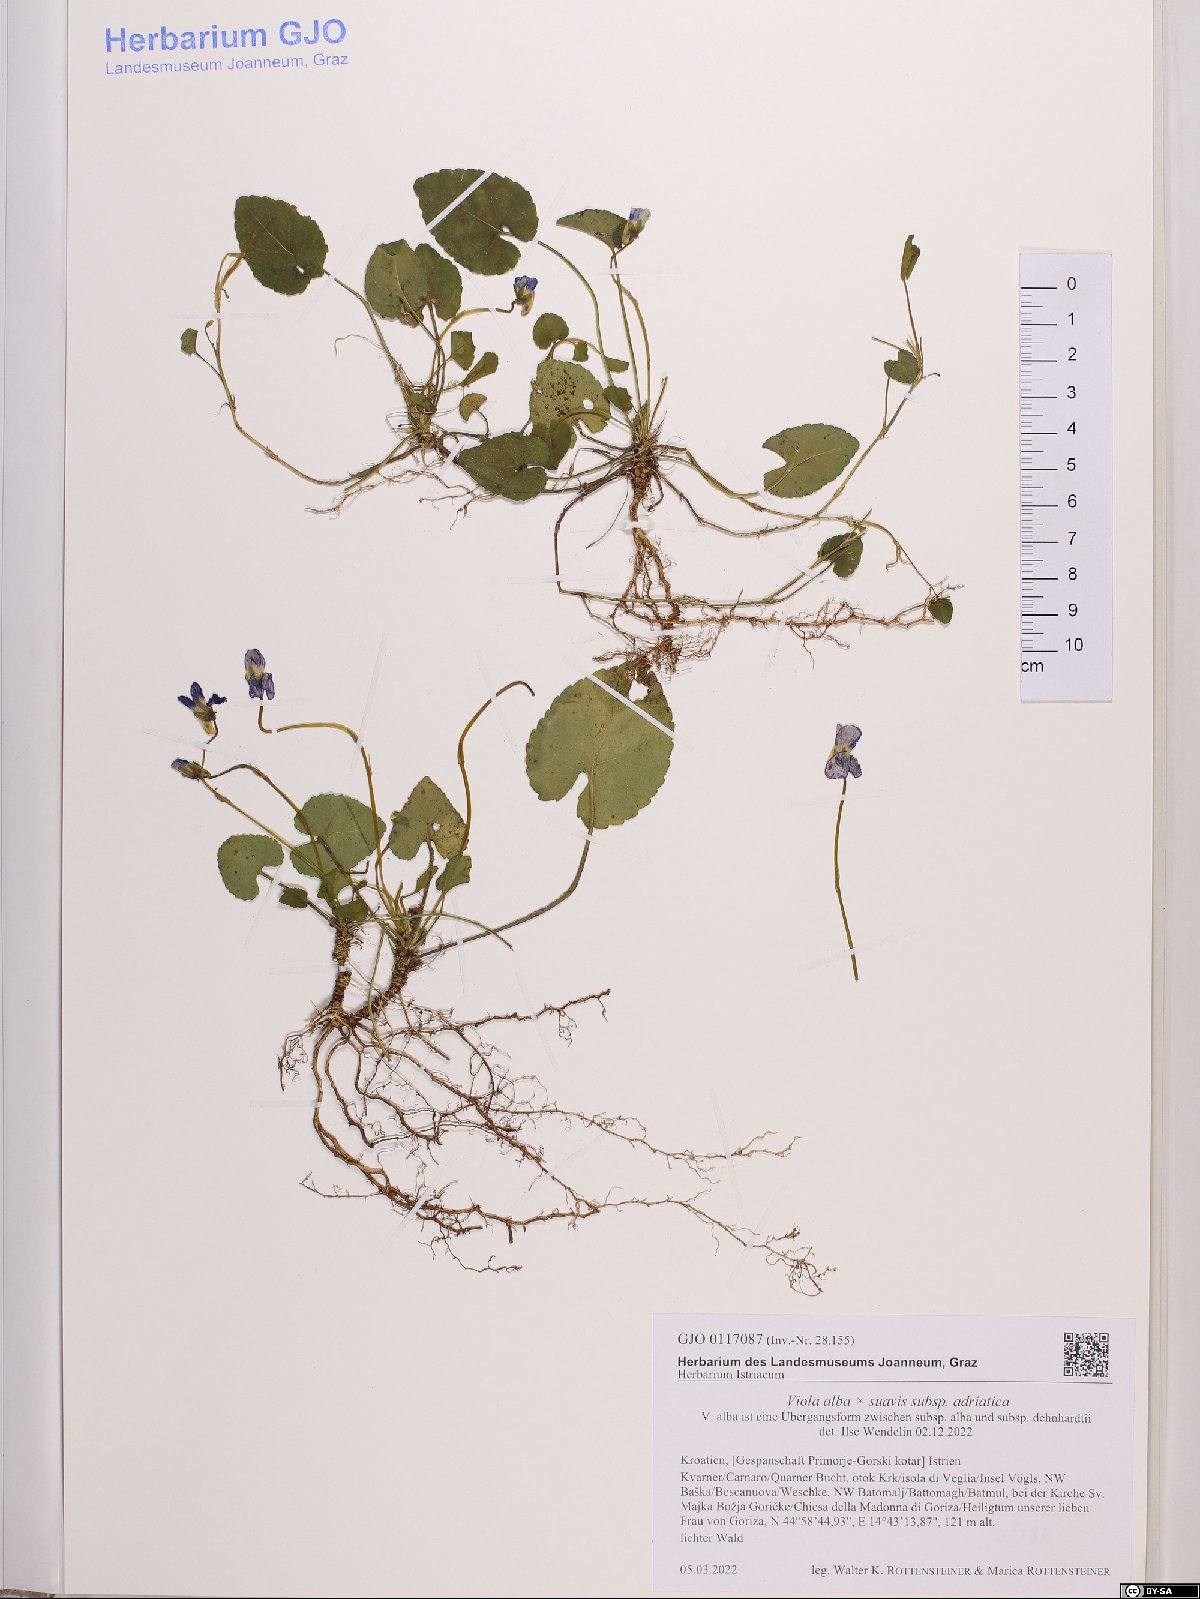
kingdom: Plantae
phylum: Tracheophyta
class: Magnoliopsida
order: Malpighiales
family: Violaceae
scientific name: Violaceae
